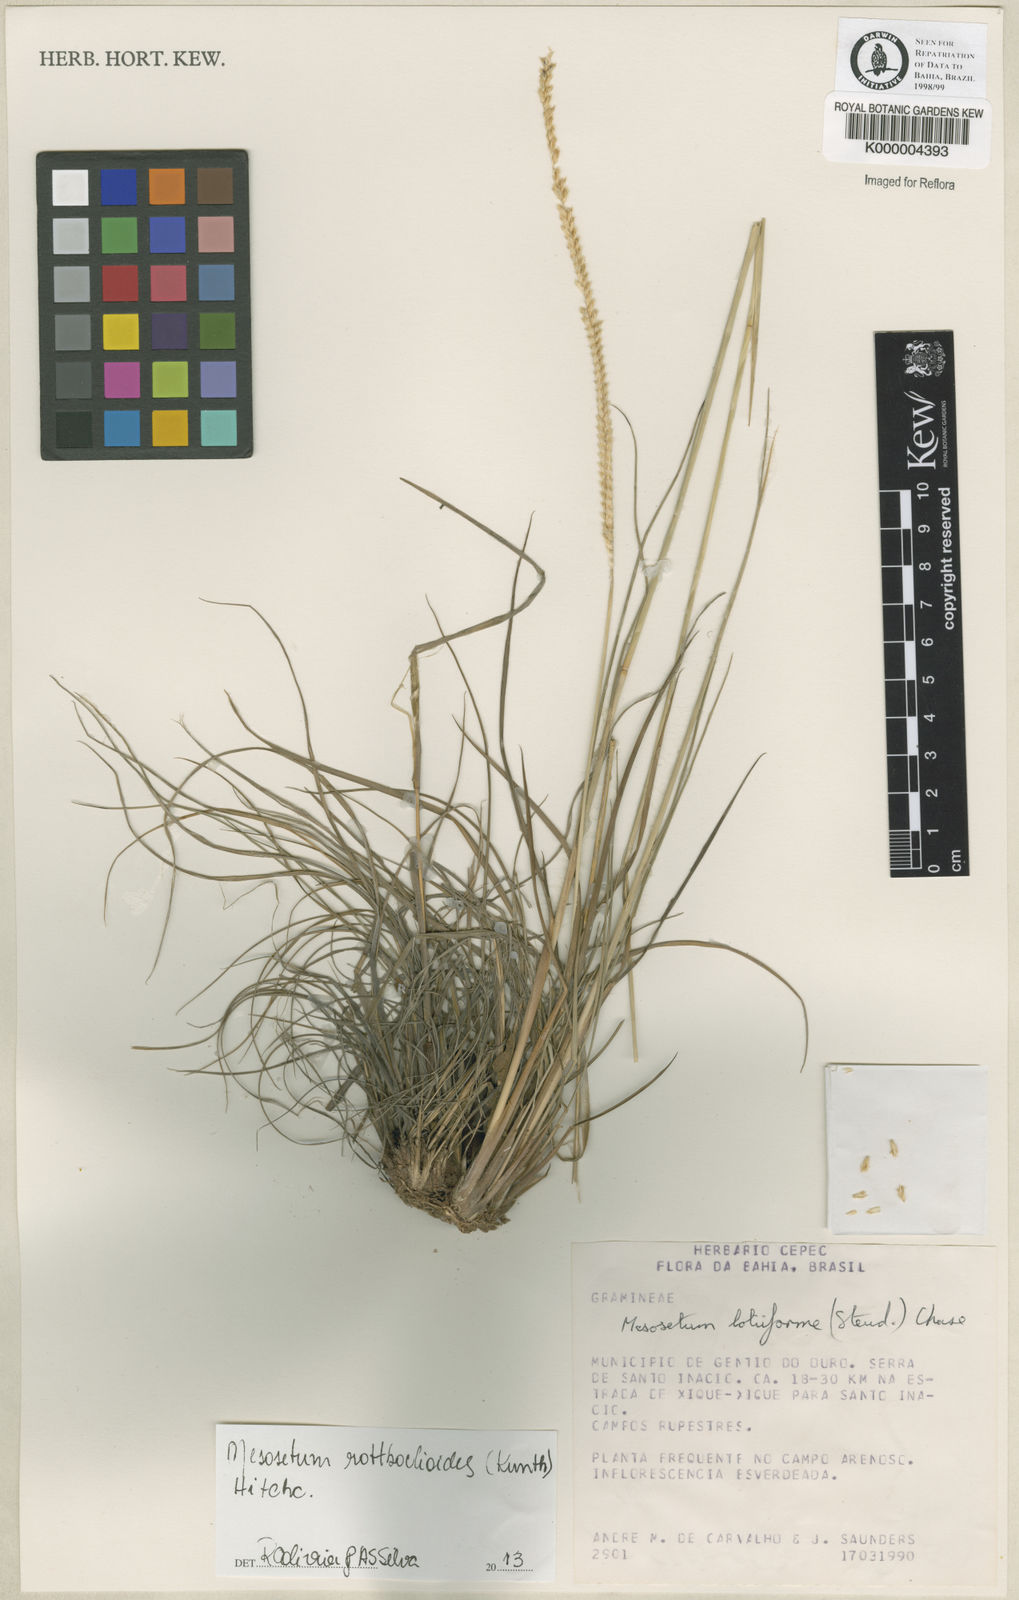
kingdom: Plantae
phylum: Tracheophyta
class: Liliopsida
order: Poales
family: Poaceae
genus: Mesosetum
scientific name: Mesosetum
